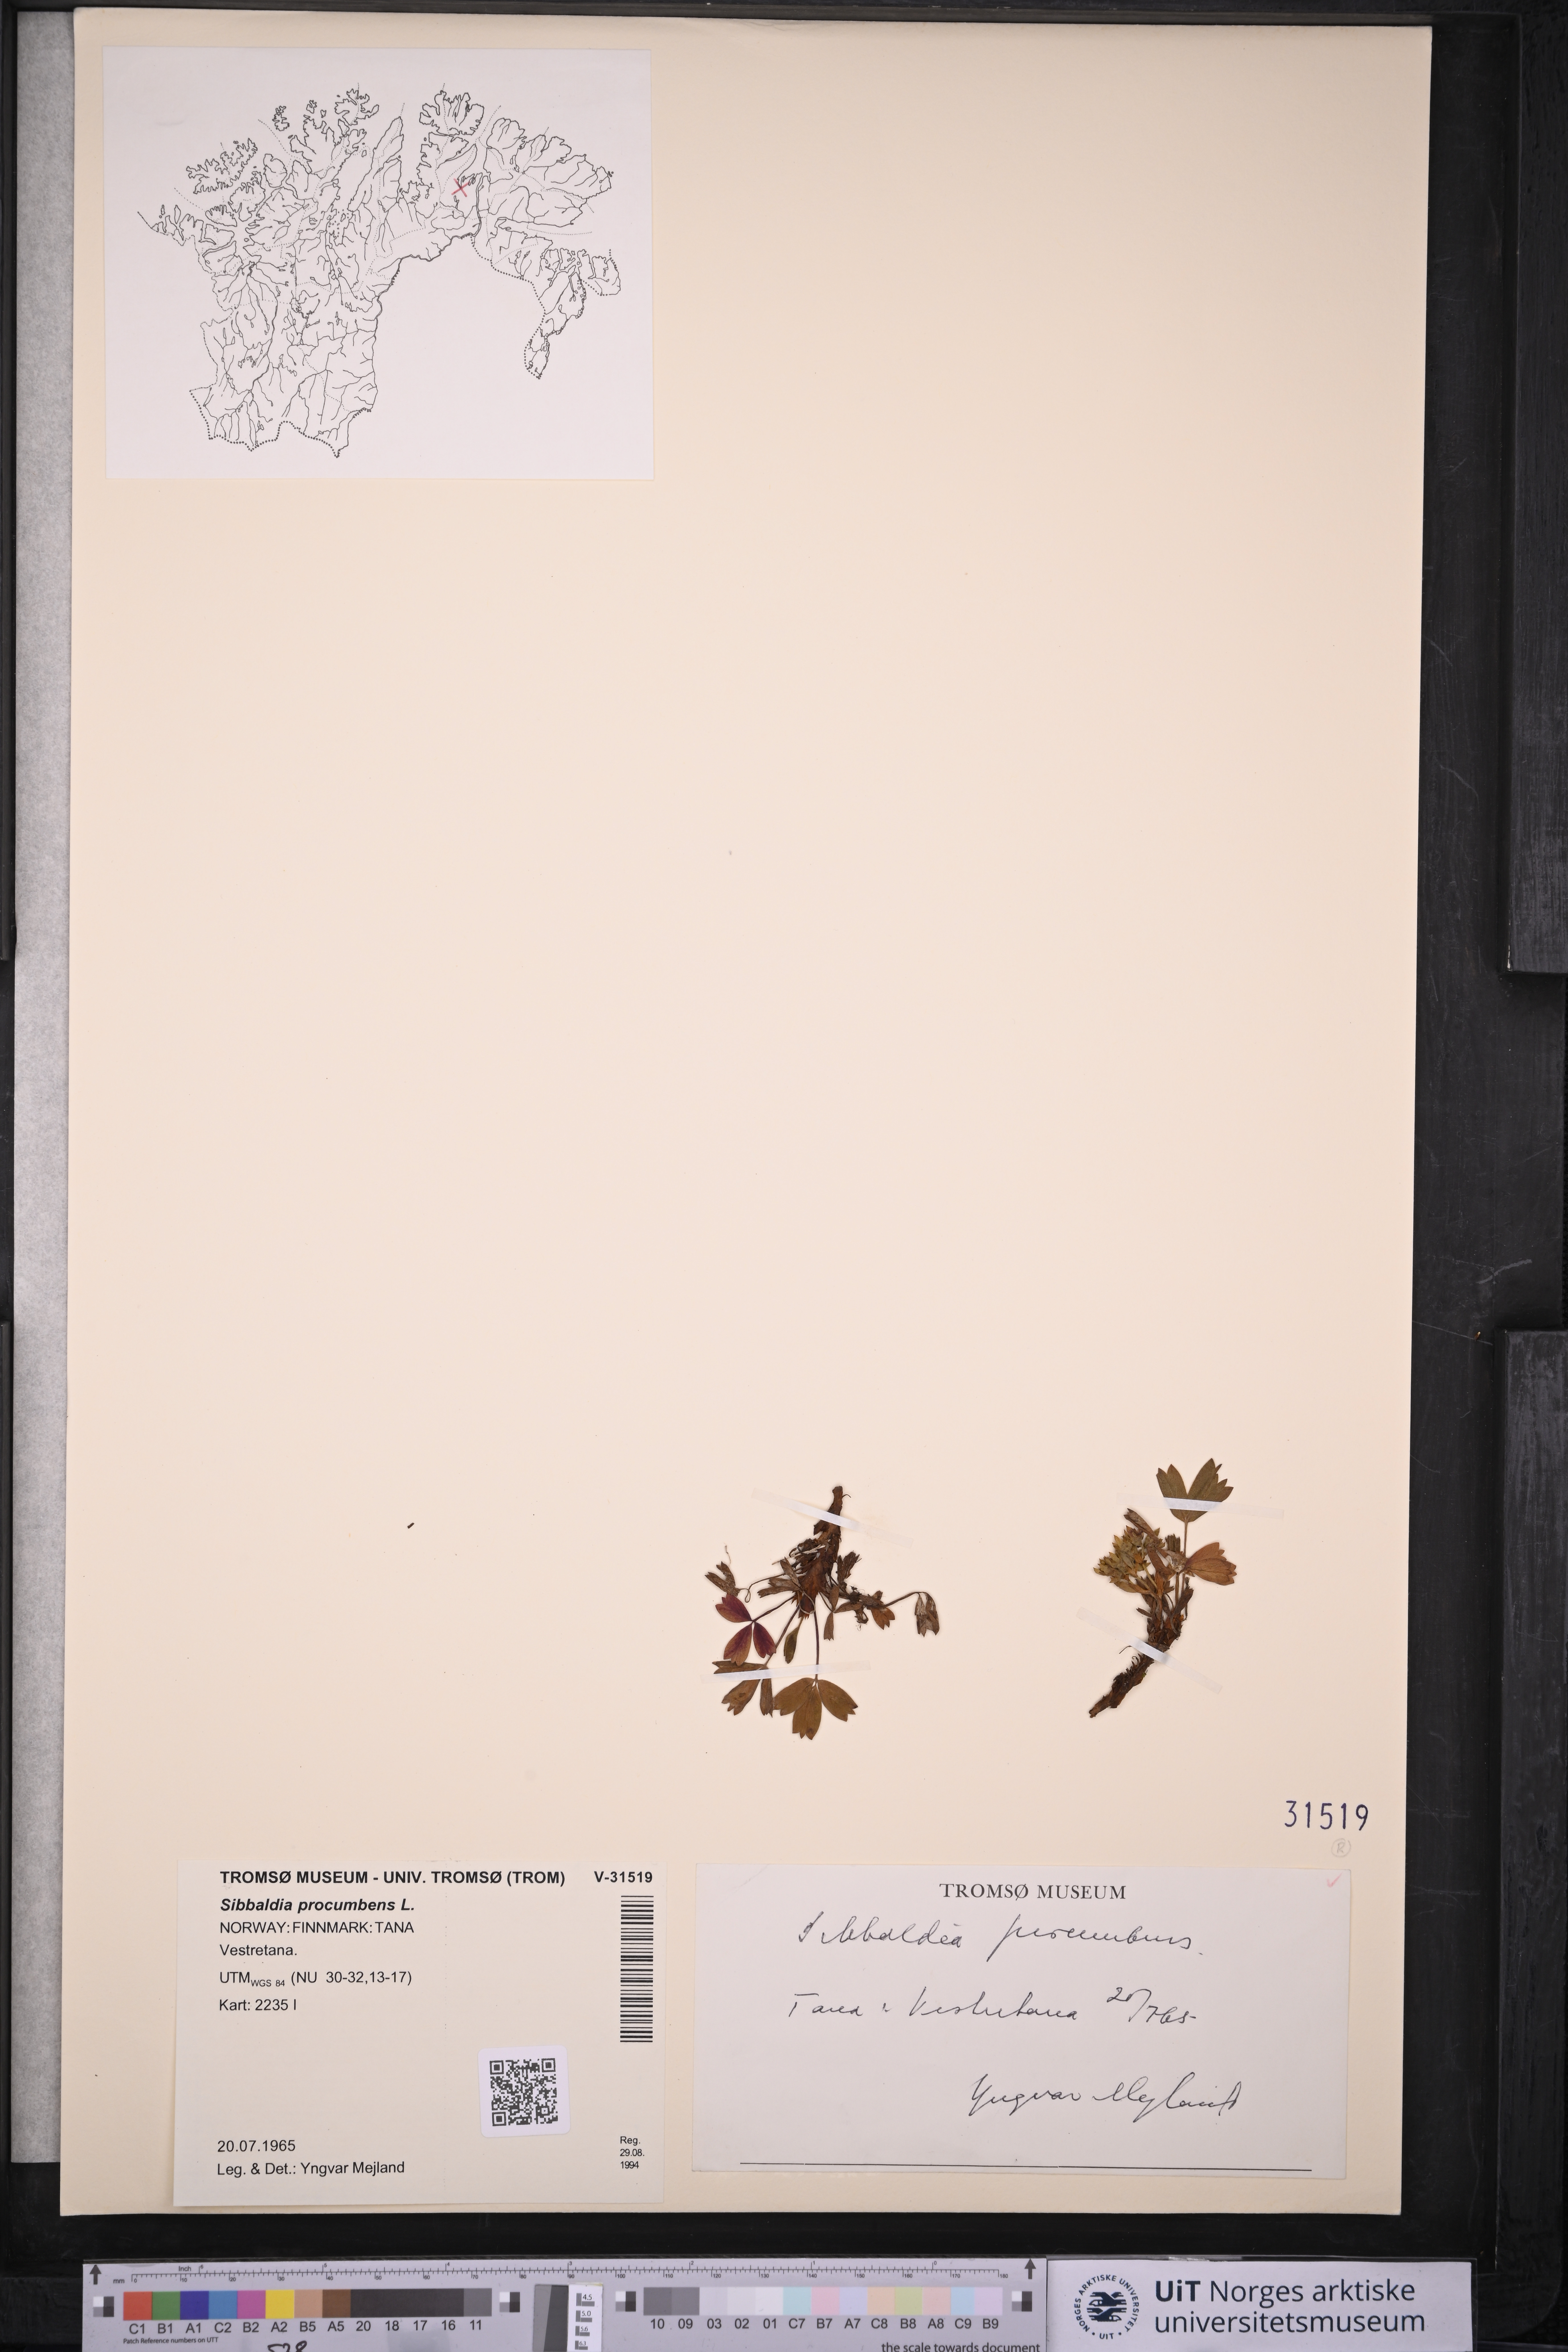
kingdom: Plantae
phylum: Tracheophyta
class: Magnoliopsida
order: Rosales
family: Rosaceae
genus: Sibbaldia
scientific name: Sibbaldia procumbens
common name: Creeping sibbaldia
